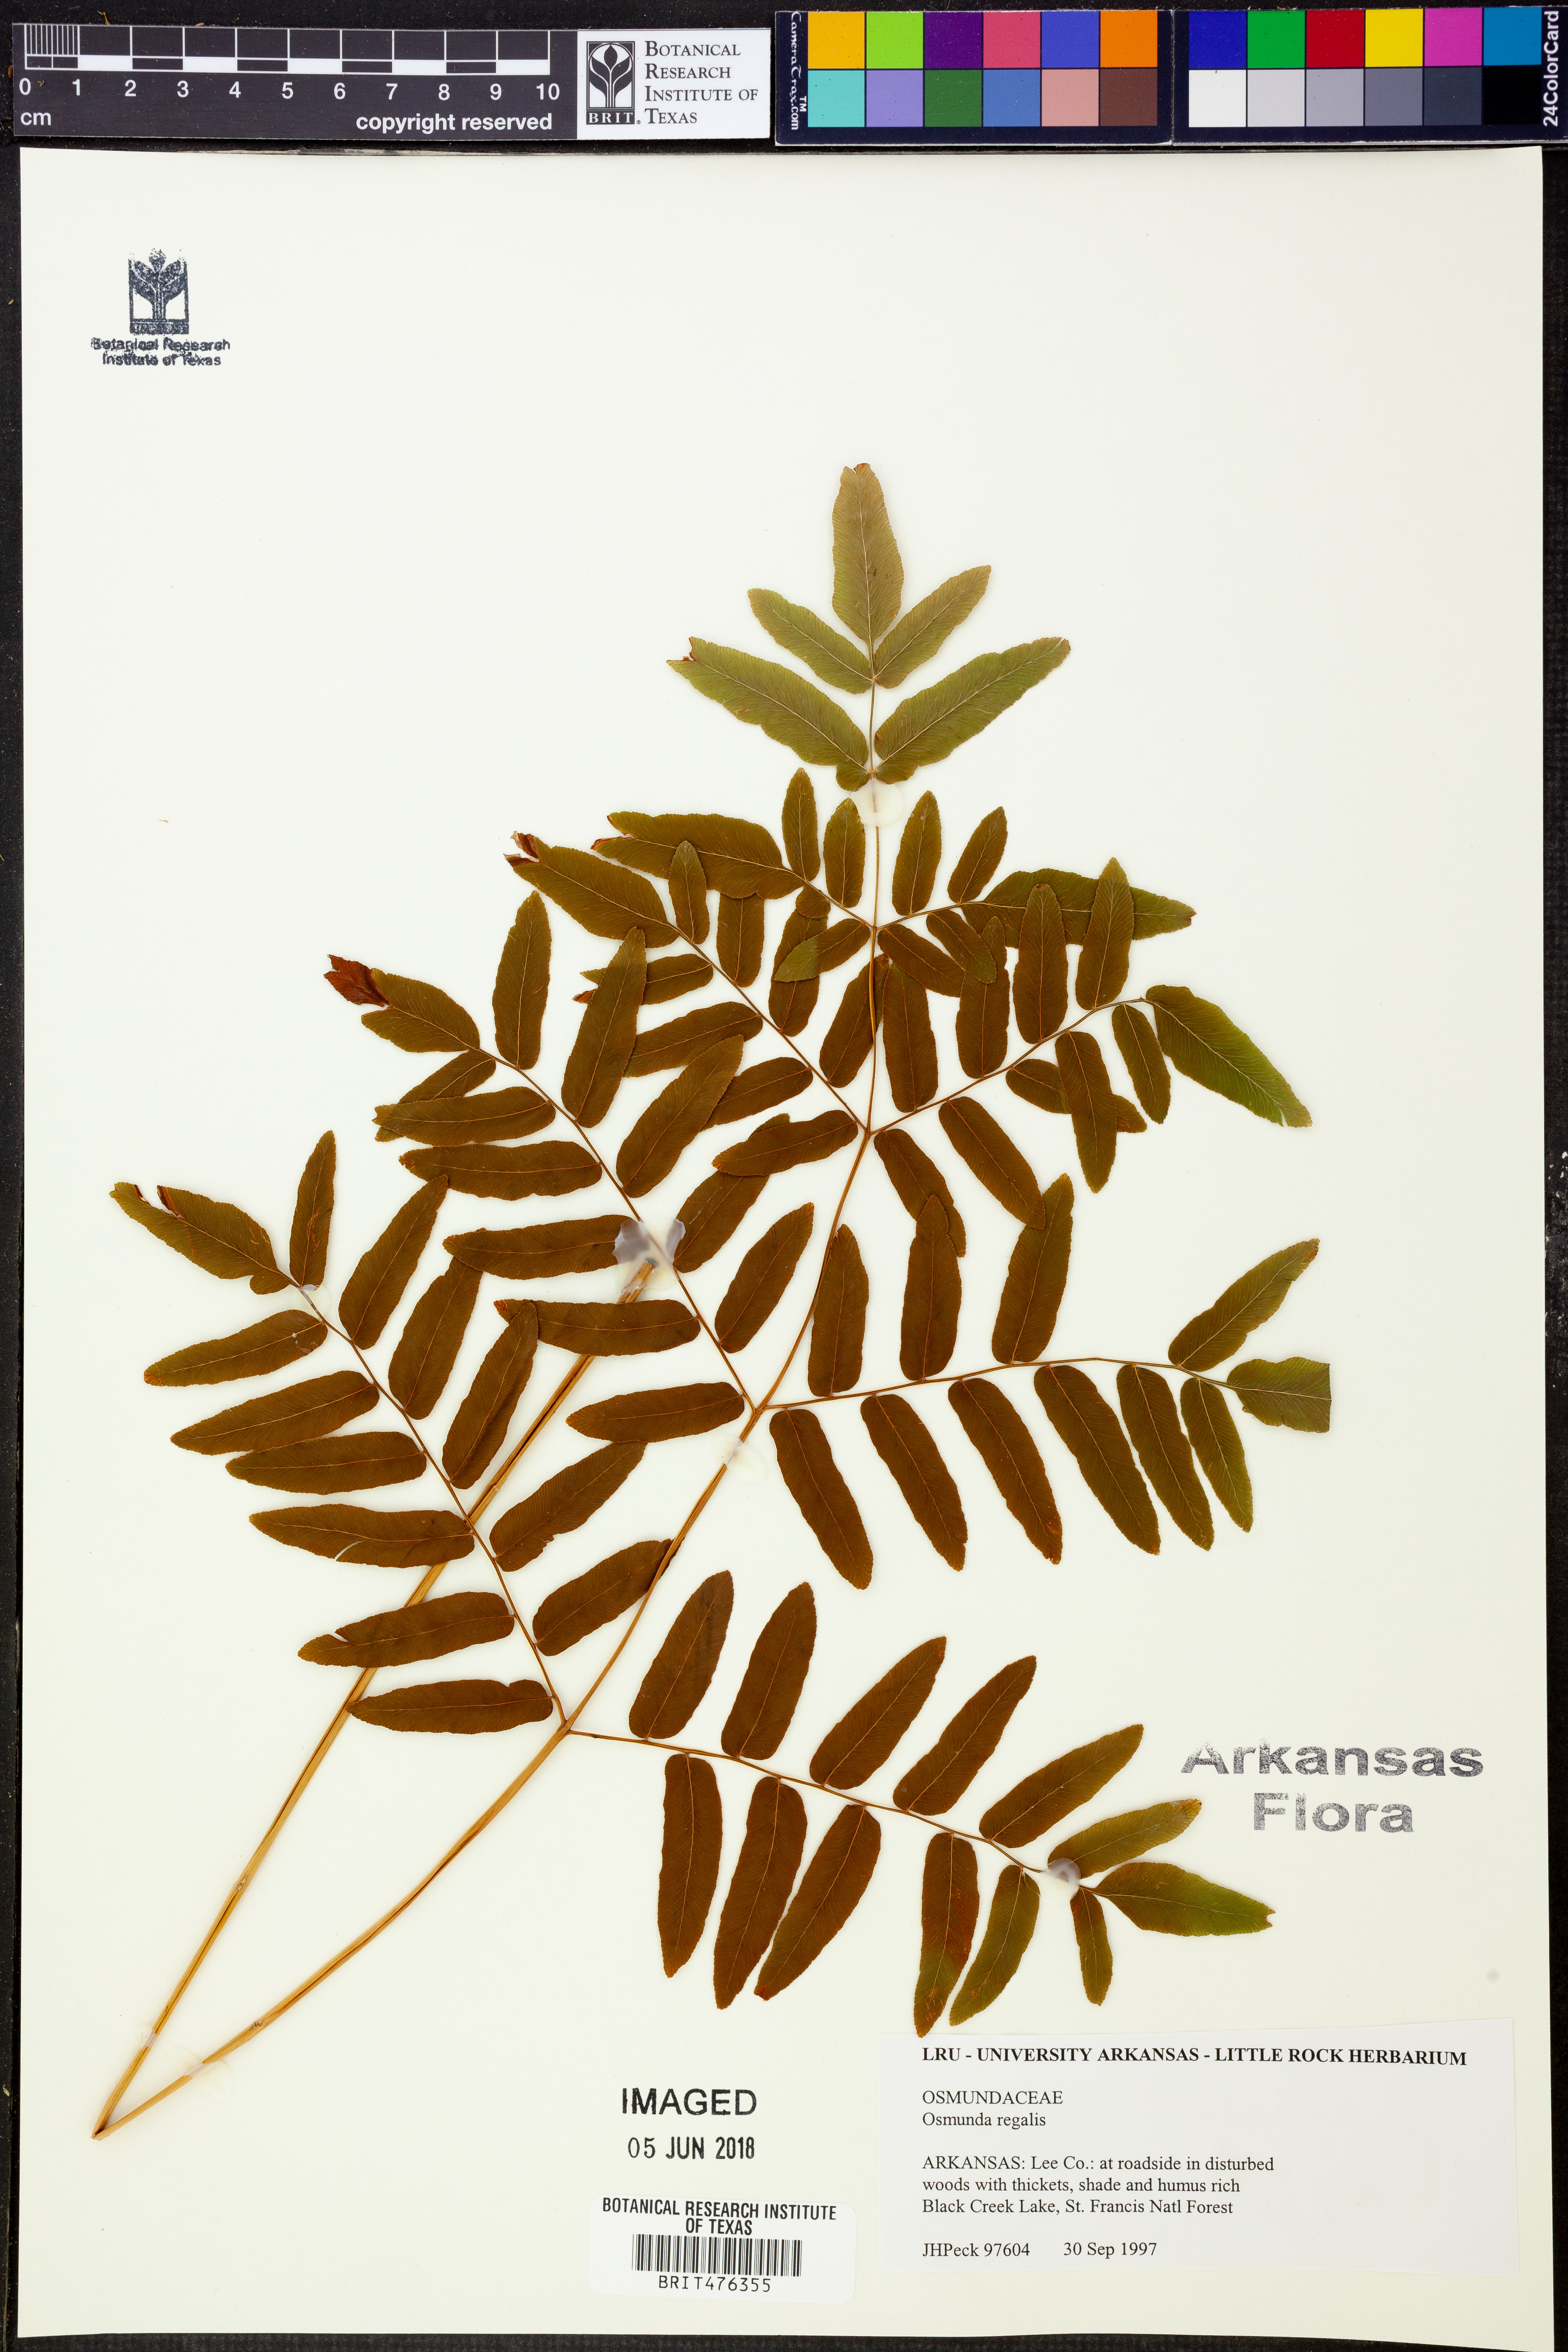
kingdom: Plantae
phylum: Tracheophyta
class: Polypodiopsida
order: Osmundales
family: Osmundaceae
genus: Osmunda
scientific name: Osmunda regalis
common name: Royal fern
